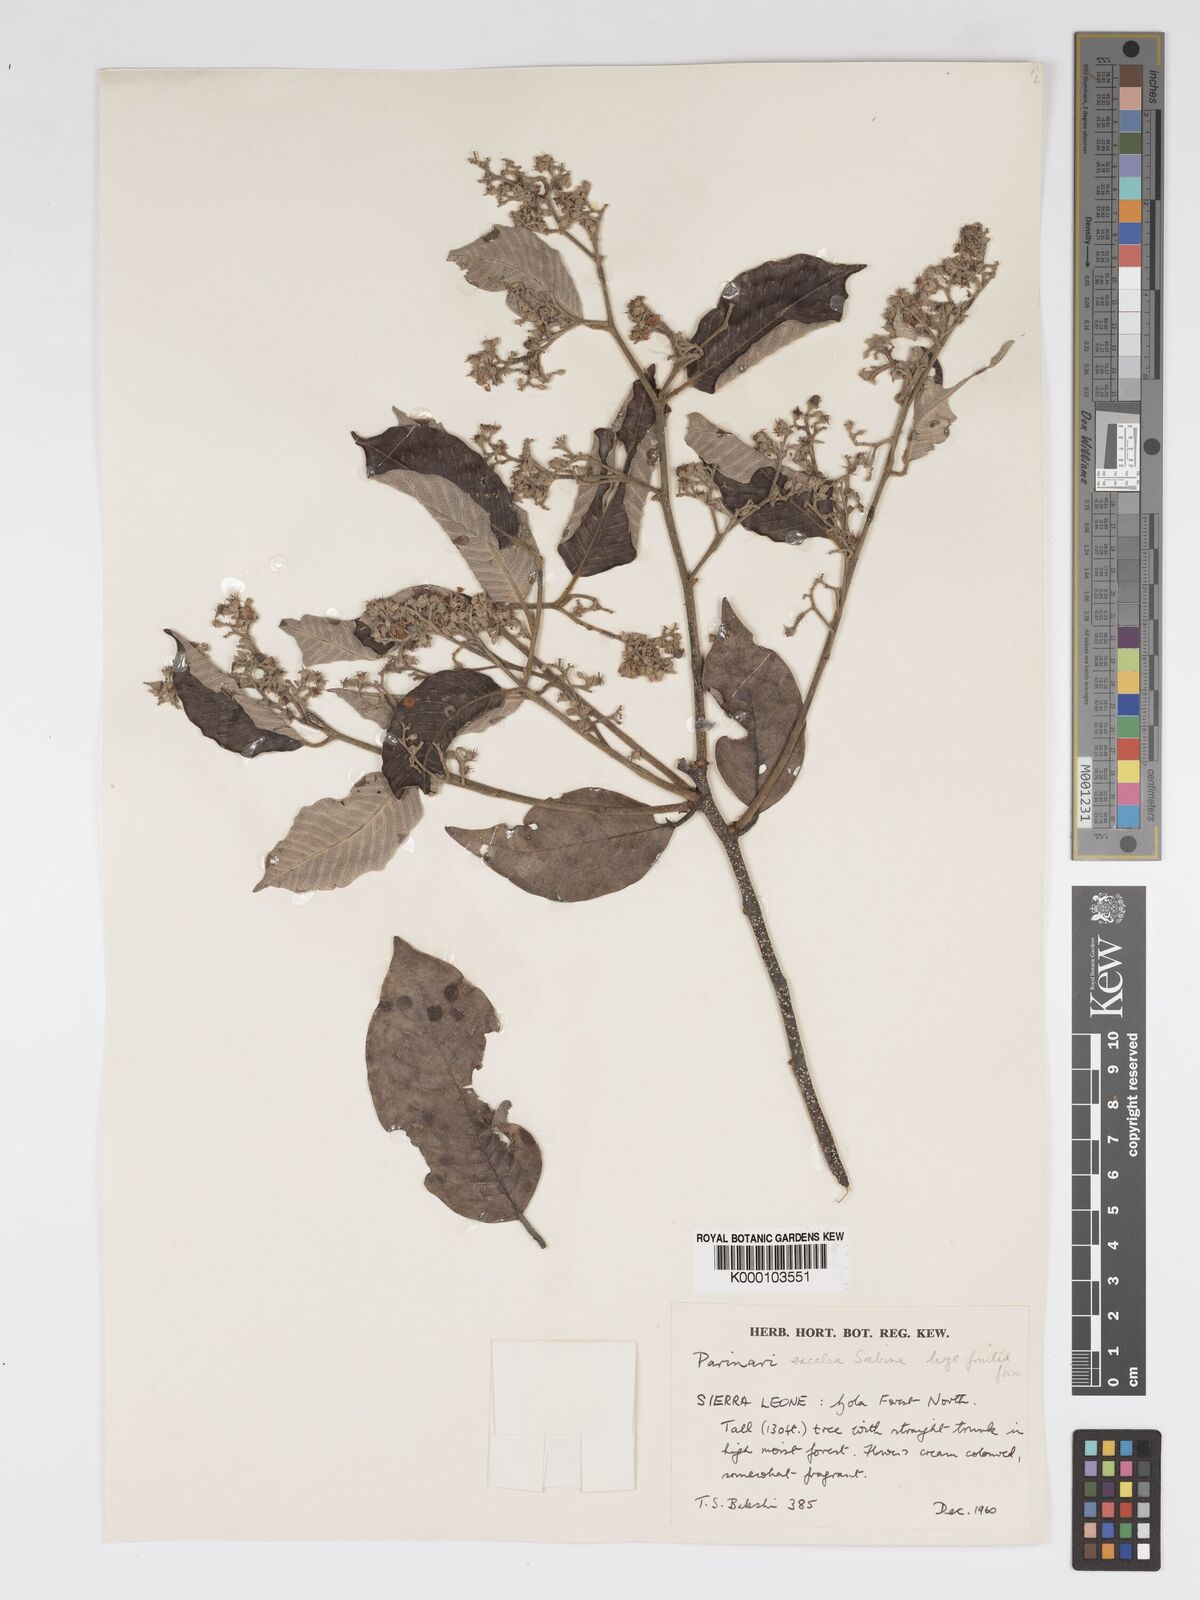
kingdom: Plantae
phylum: Tracheophyta
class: Magnoliopsida
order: Malpighiales
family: Chrysobalanaceae
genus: Parinari
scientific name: Parinari excelsa
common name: Guinea-plum
